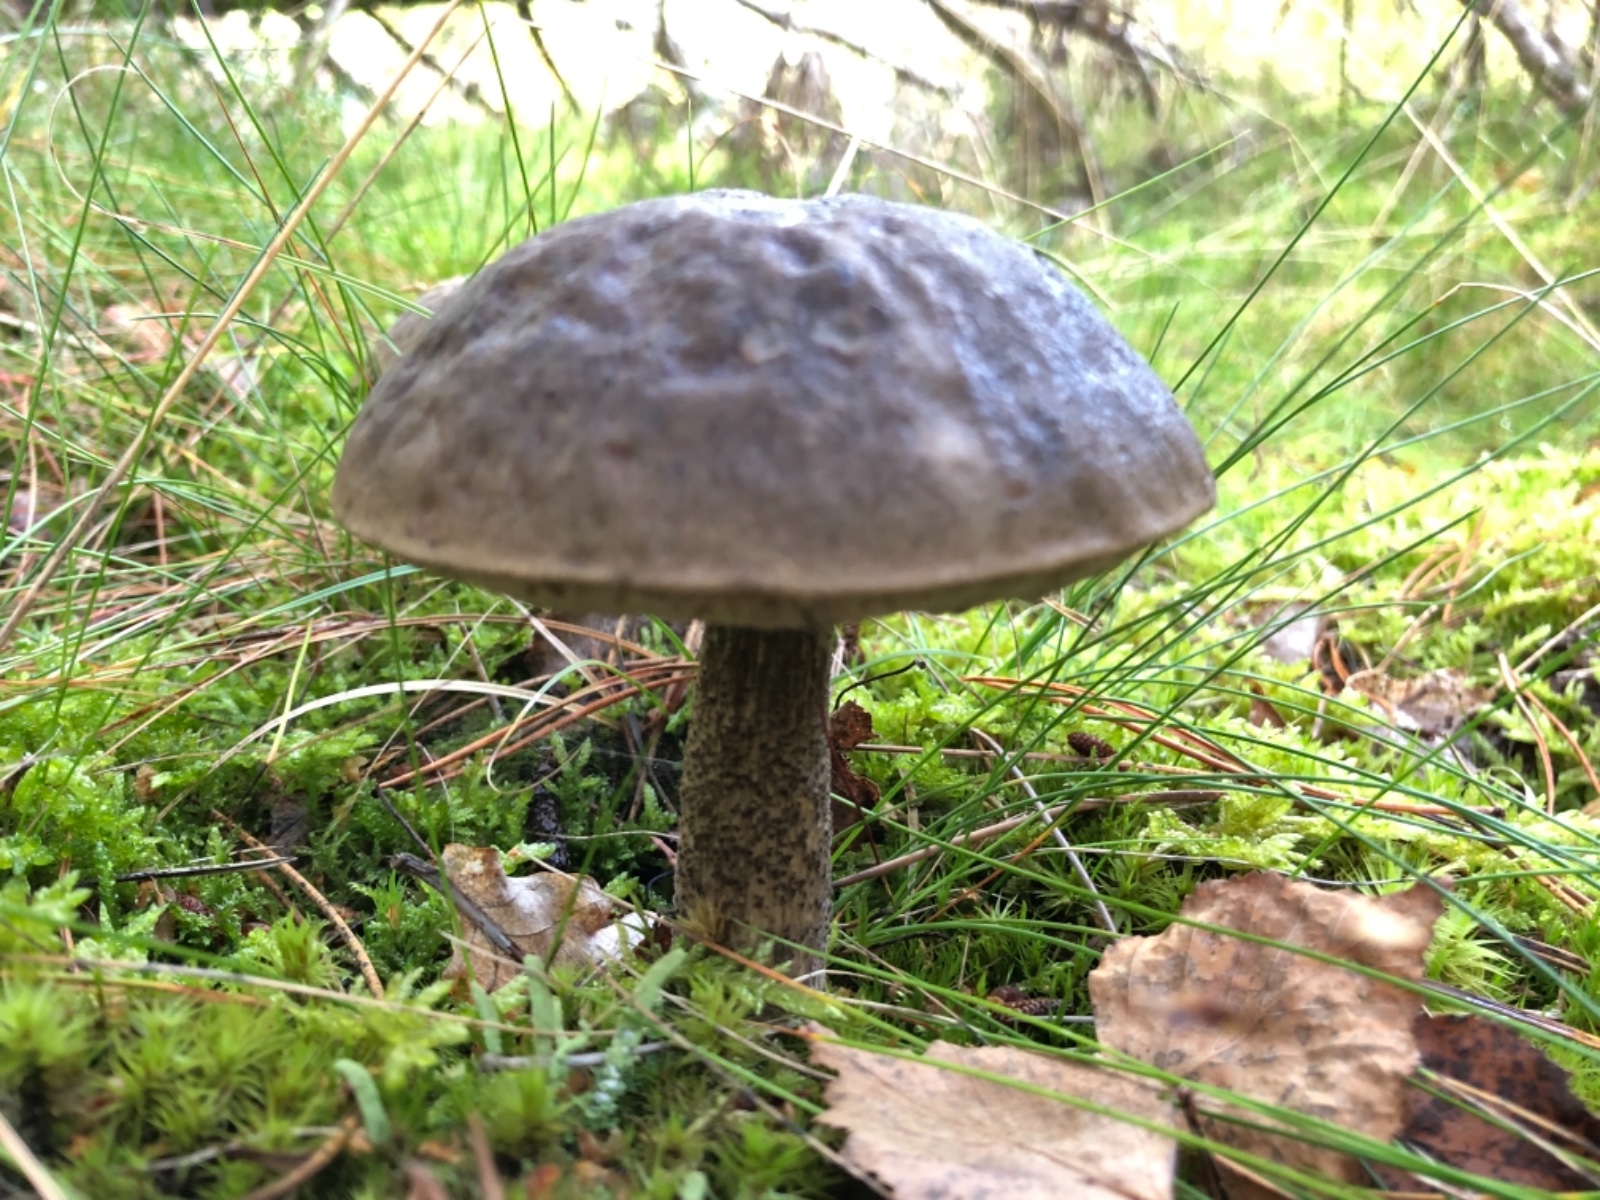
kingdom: Fungi
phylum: Basidiomycota
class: Agaricomycetes
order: Boletales
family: Boletaceae
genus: Leccinum
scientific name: Leccinum
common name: skælrørhat
